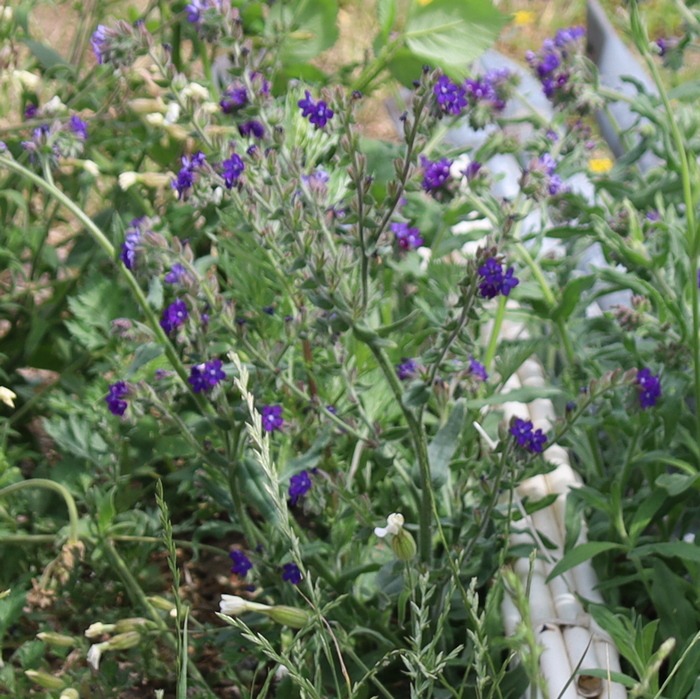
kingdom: Plantae
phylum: Tracheophyta
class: Magnoliopsida
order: Boraginales
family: Boraginaceae
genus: Anchusa
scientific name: Anchusa officinalis
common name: Læge-oksetunge
